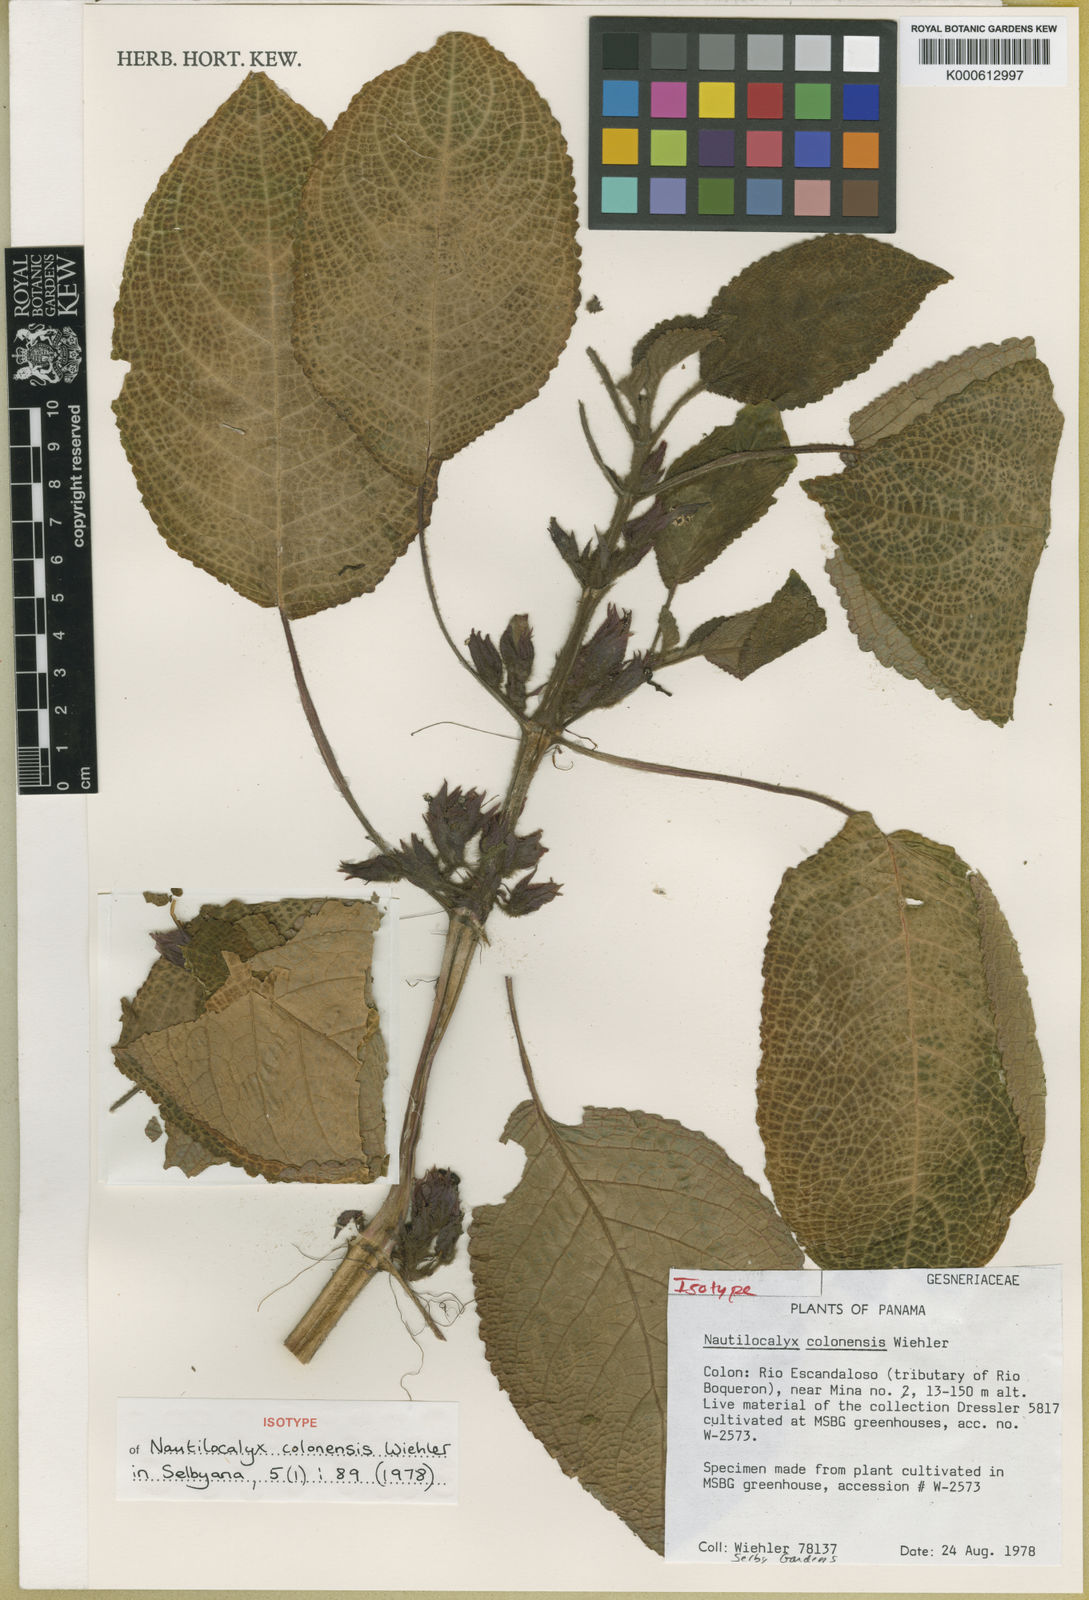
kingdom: Plantae
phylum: Tracheophyta
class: Magnoliopsida
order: Lamiales
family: Gesneriaceae
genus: Chrysothemis
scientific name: Chrysothemis colonensis
